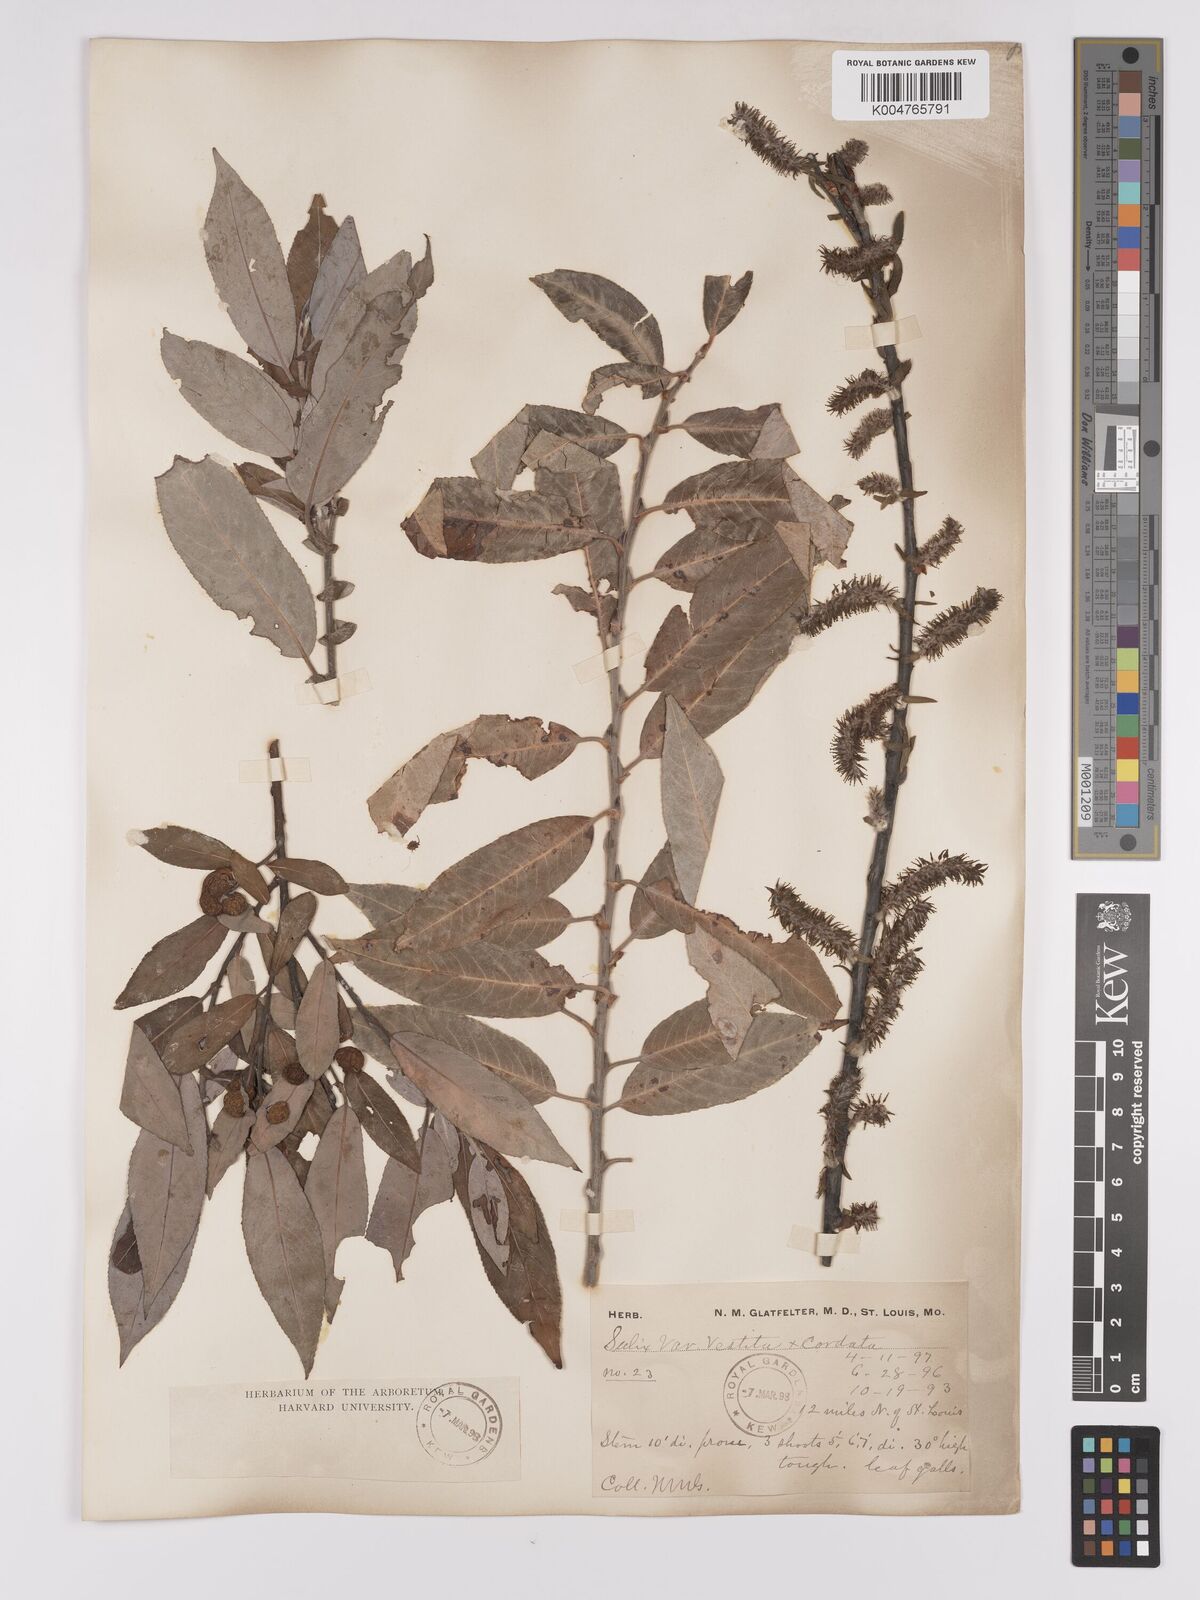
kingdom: Plantae
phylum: Tracheophyta
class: Magnoliopsida
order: Malpighiales
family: Salicaceae
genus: Salix
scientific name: Salix vestita
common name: Hairy willow
